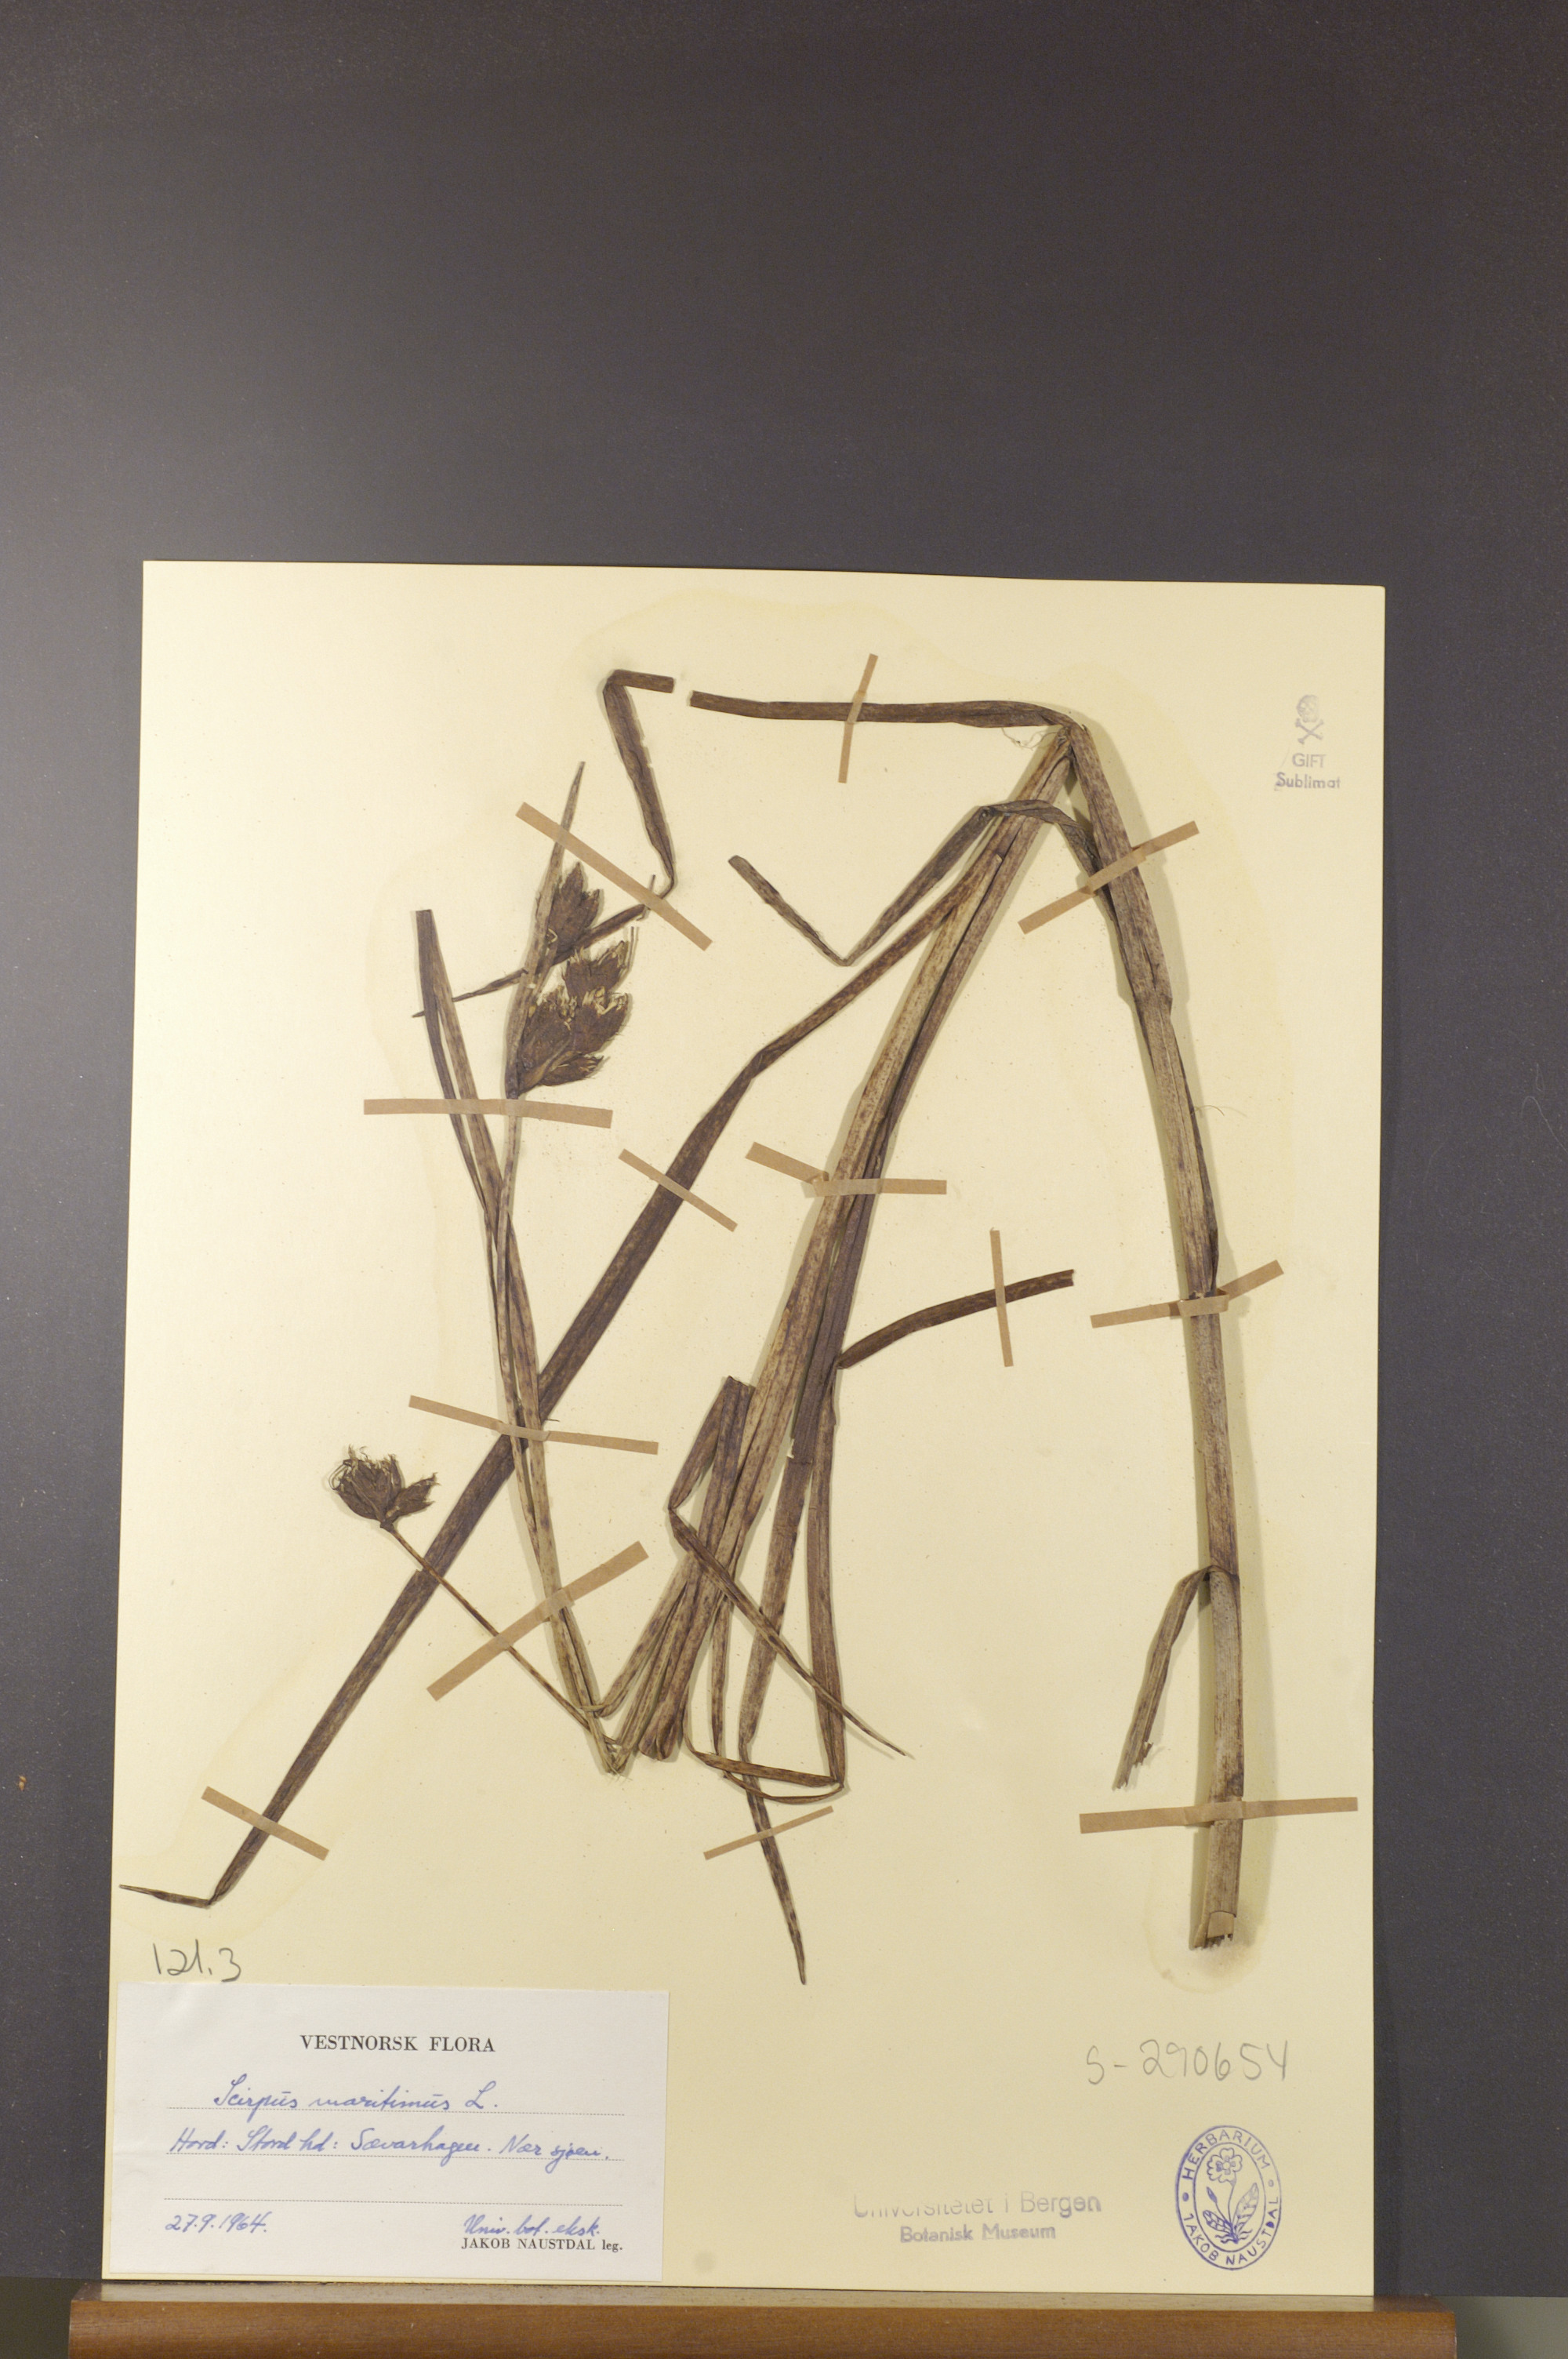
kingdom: Plantae
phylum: Tracheophyta
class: Liliopsida
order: Poales
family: Cyperaceae
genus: Bolboschoenus
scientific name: Bolboschoenus maritimus
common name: Sea club-rush
